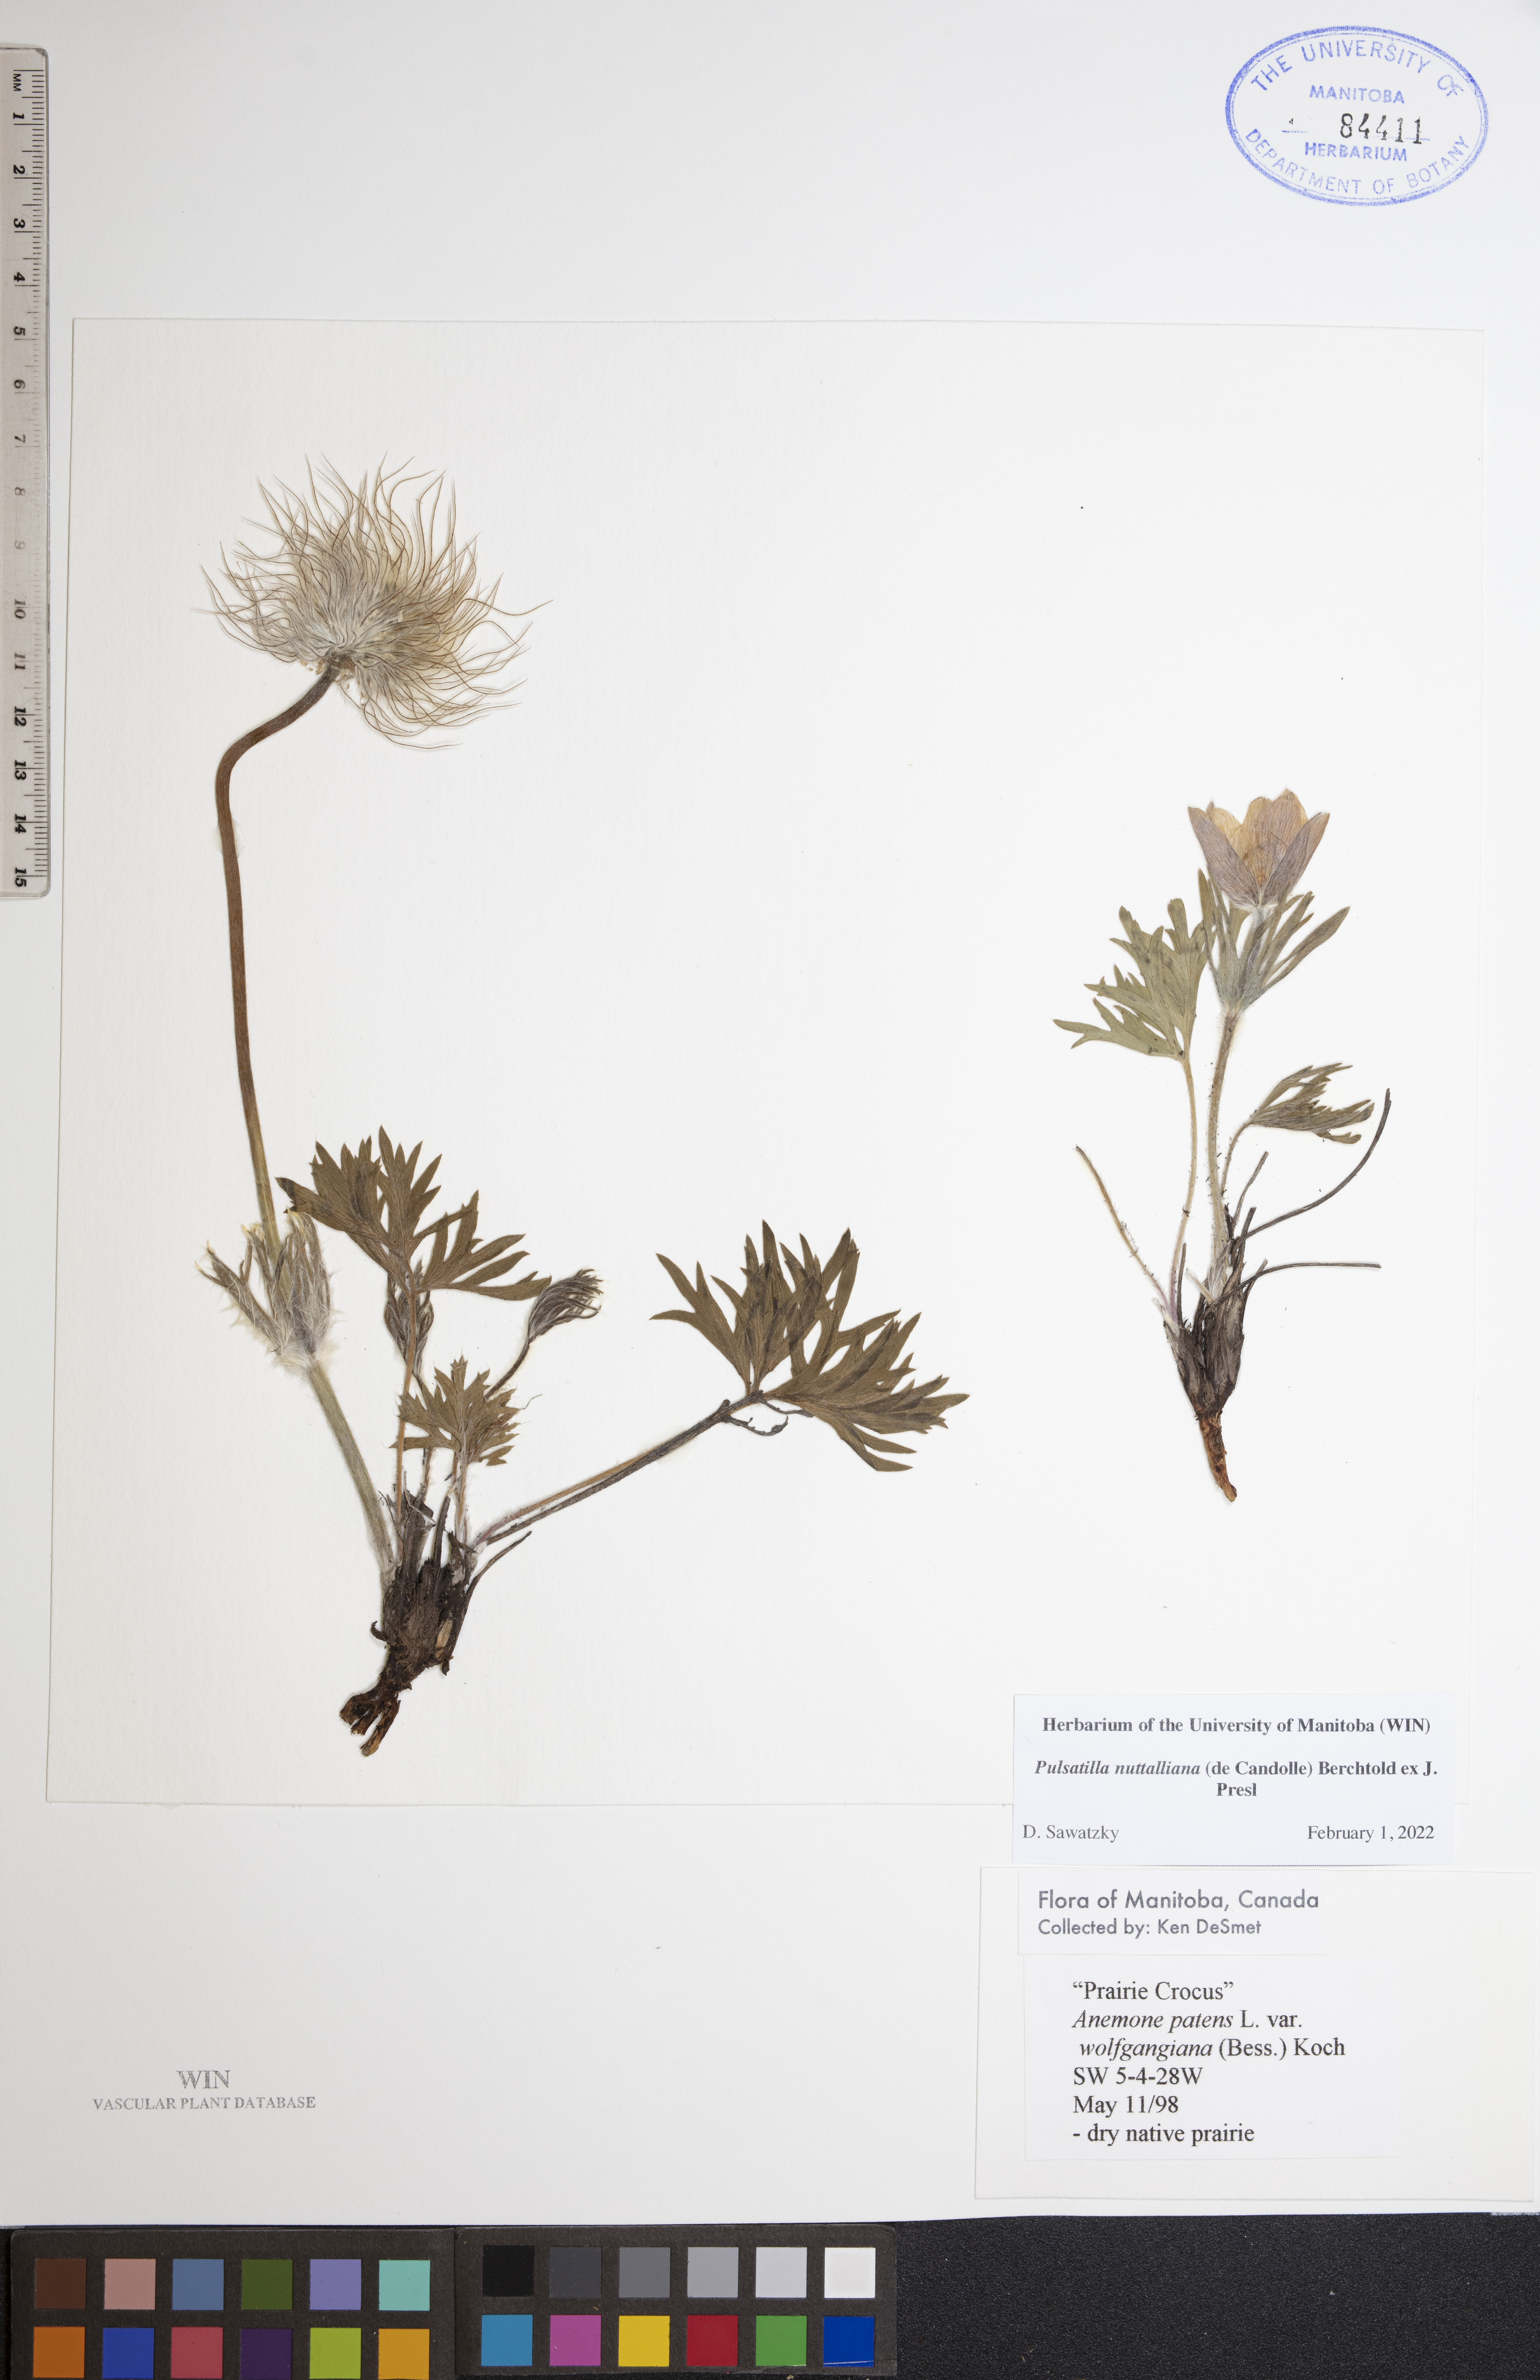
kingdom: Plantae
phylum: Tracheophyta
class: Magnoliopsida
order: Ranunculales
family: Ranunculaceae
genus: Pulsatilla
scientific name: Pulsatilla nuttalliana
